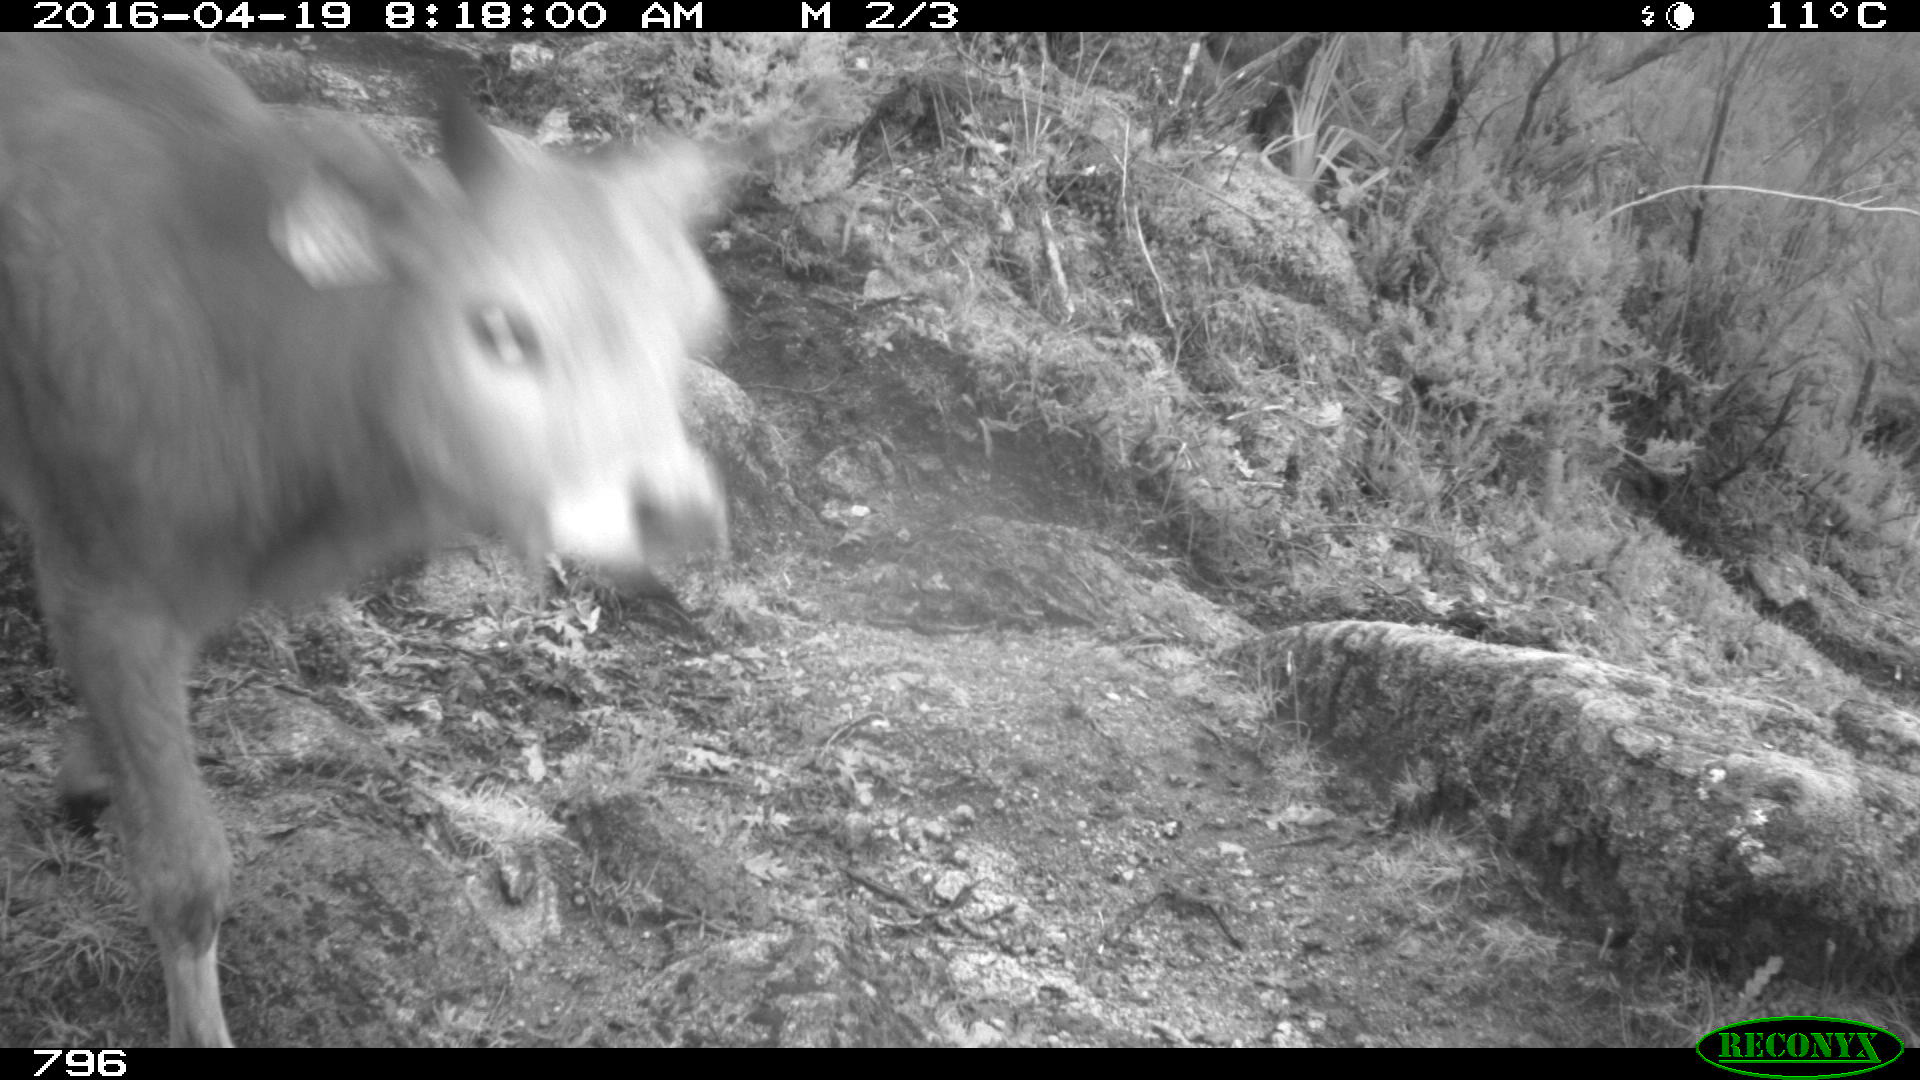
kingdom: Animalia
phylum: Chordata
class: Mammalia
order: Artiodactyla
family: Bovidae
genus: Bos
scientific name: Bos taurus
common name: Domesticated cattle
